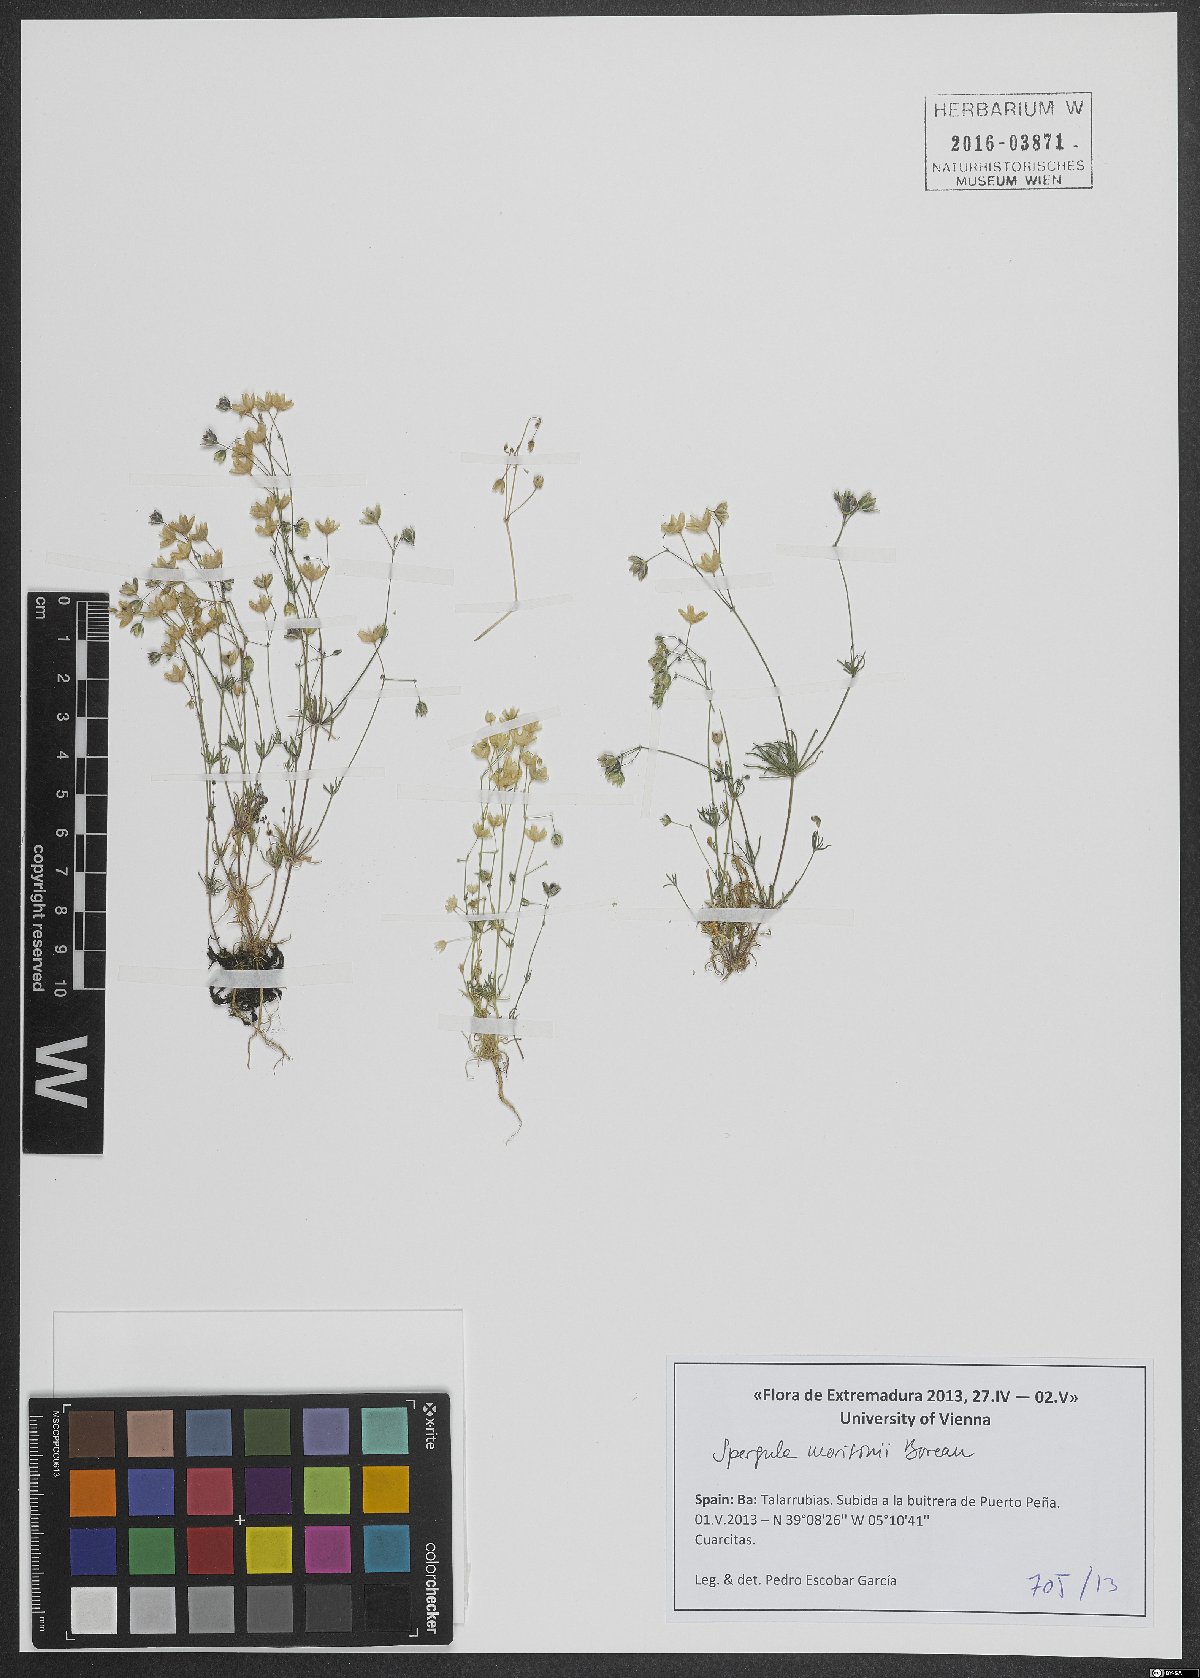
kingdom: Plantae
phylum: Tracheophyta
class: Magnoliopsida
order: Caryophyllales
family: Caryophyllaceae
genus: Spergula
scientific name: Spergula morisonii
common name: Pearlwort spurrey
